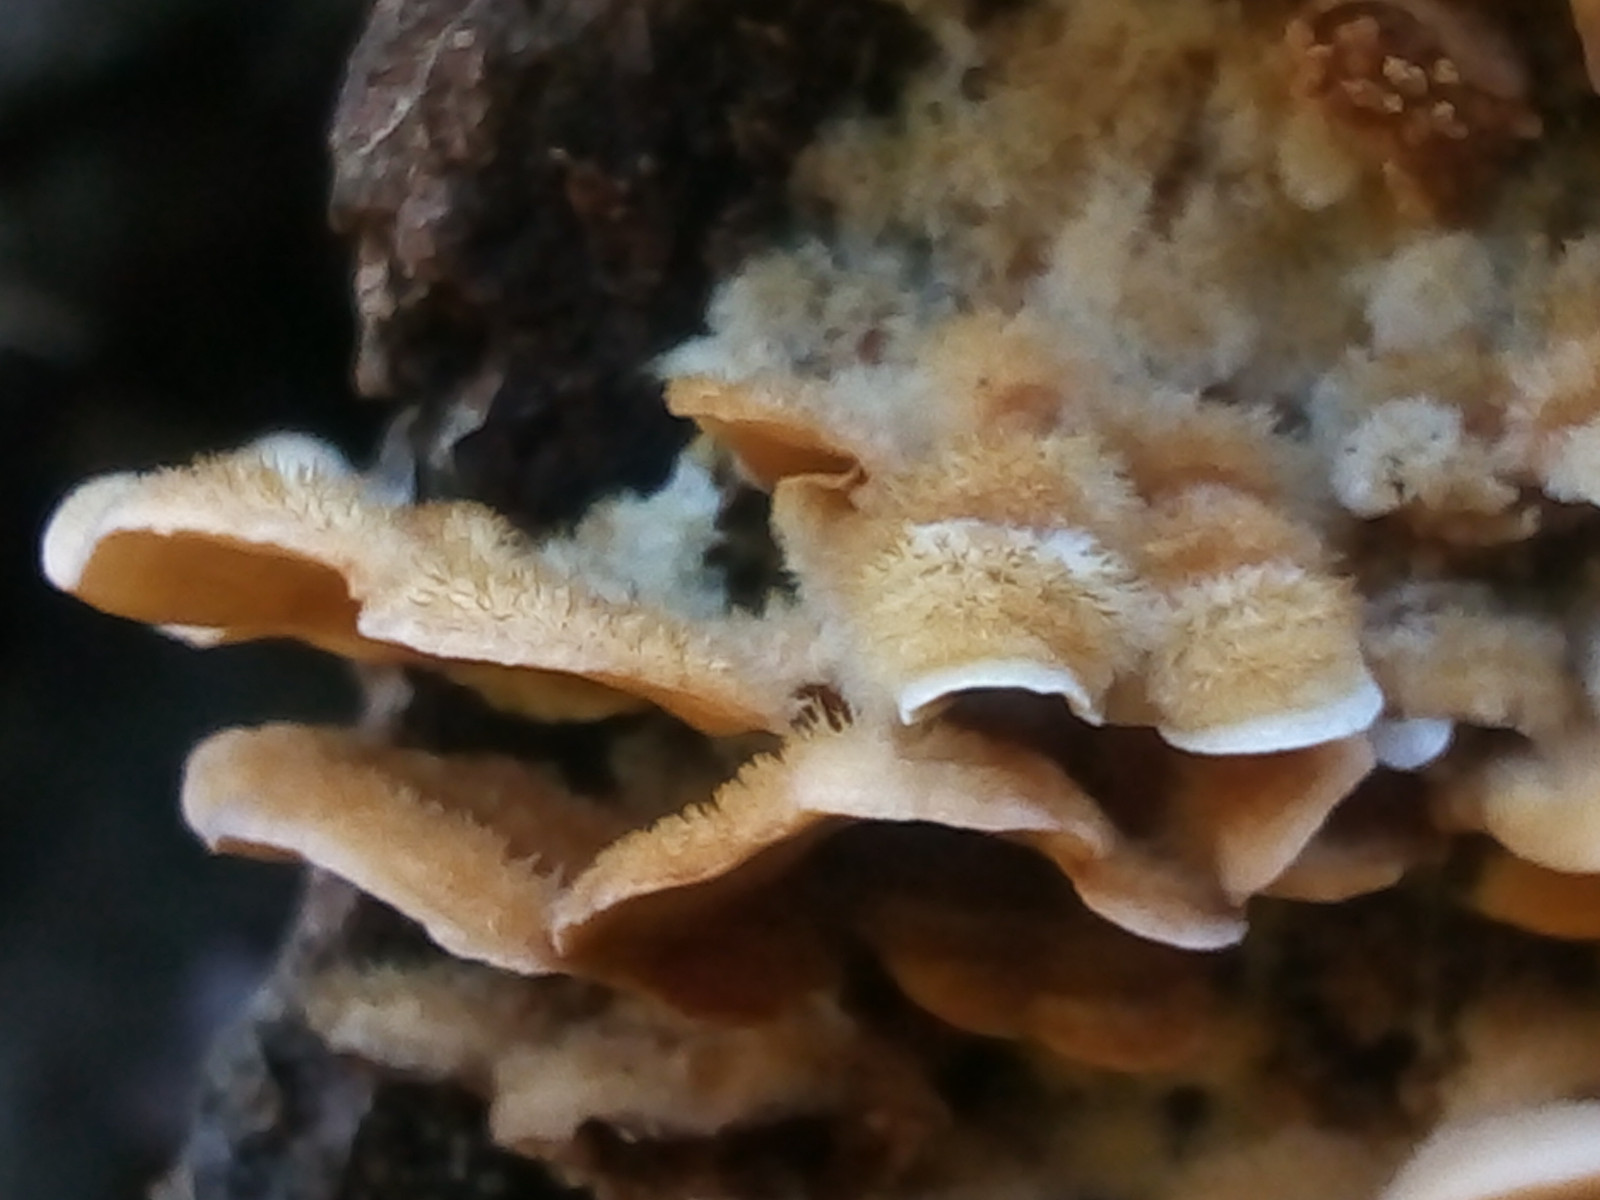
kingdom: Fungi
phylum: Basidiomycota
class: Agaricomycetes
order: Russulales
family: Stereaceae
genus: Stereum
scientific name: Stereum hirsutum
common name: håret lædersvamp
